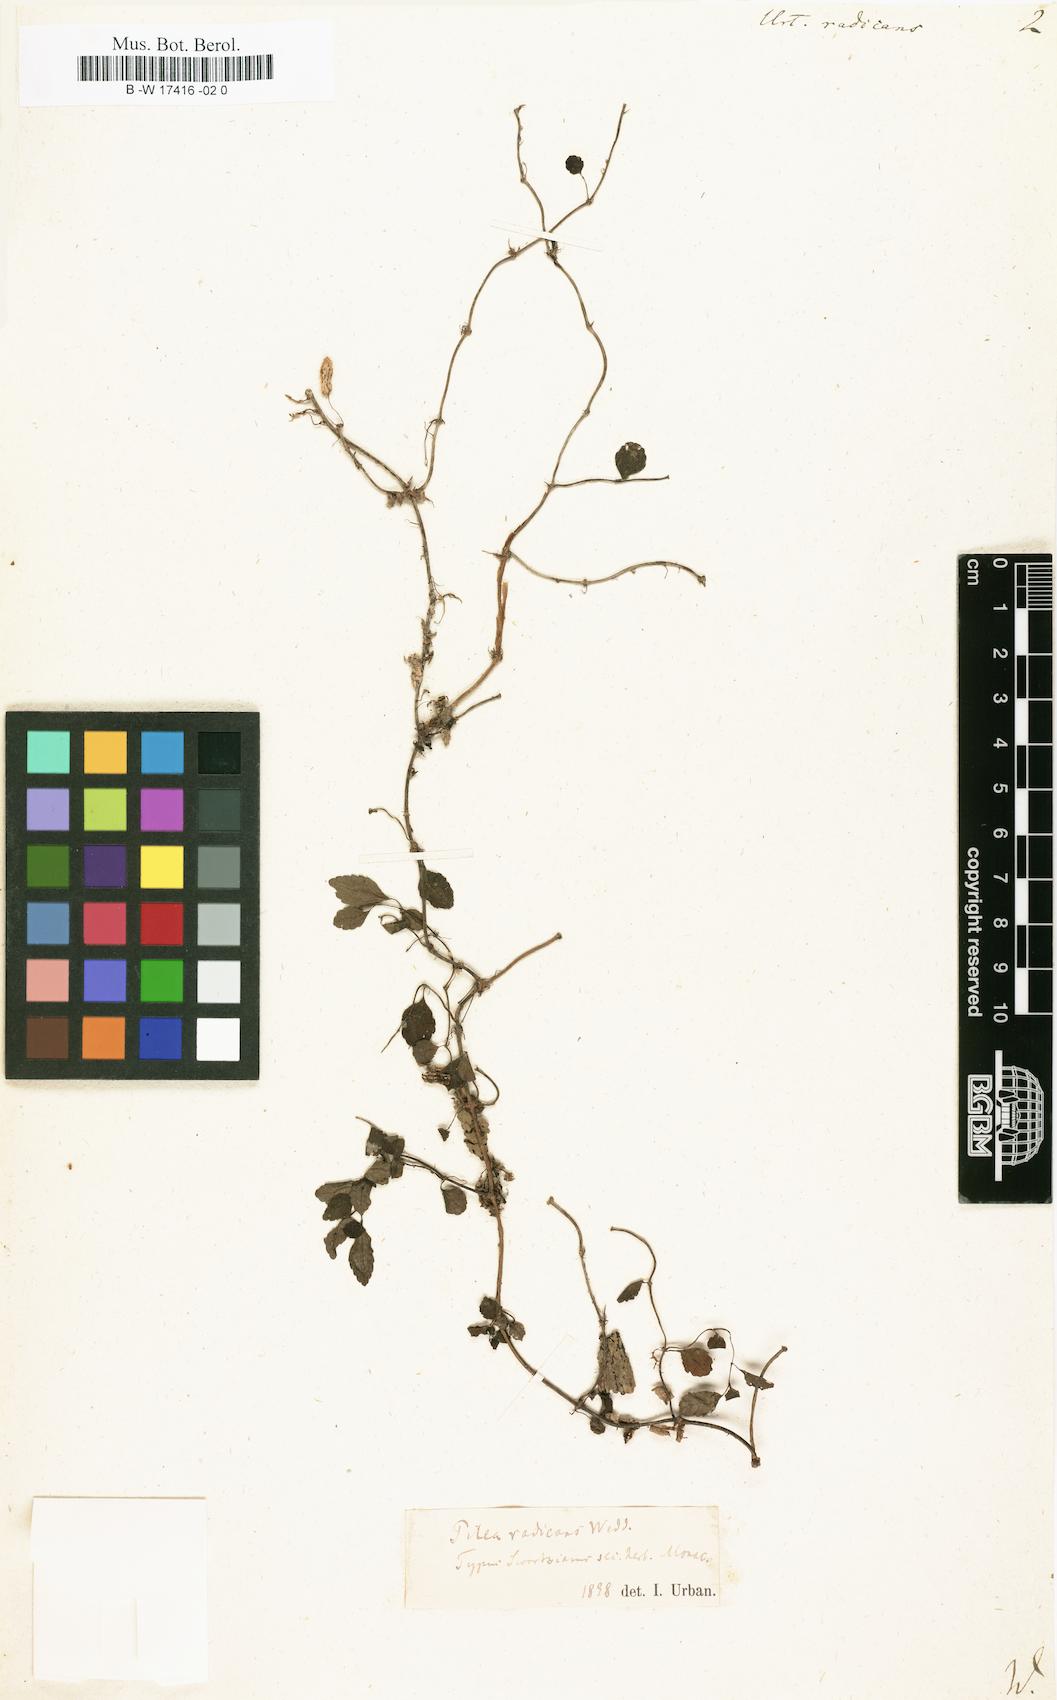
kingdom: Plantae
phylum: Tracheophyta
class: Magnoliopsida
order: Rosales
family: Urticaceae
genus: Pilea
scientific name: Pilea radicans
